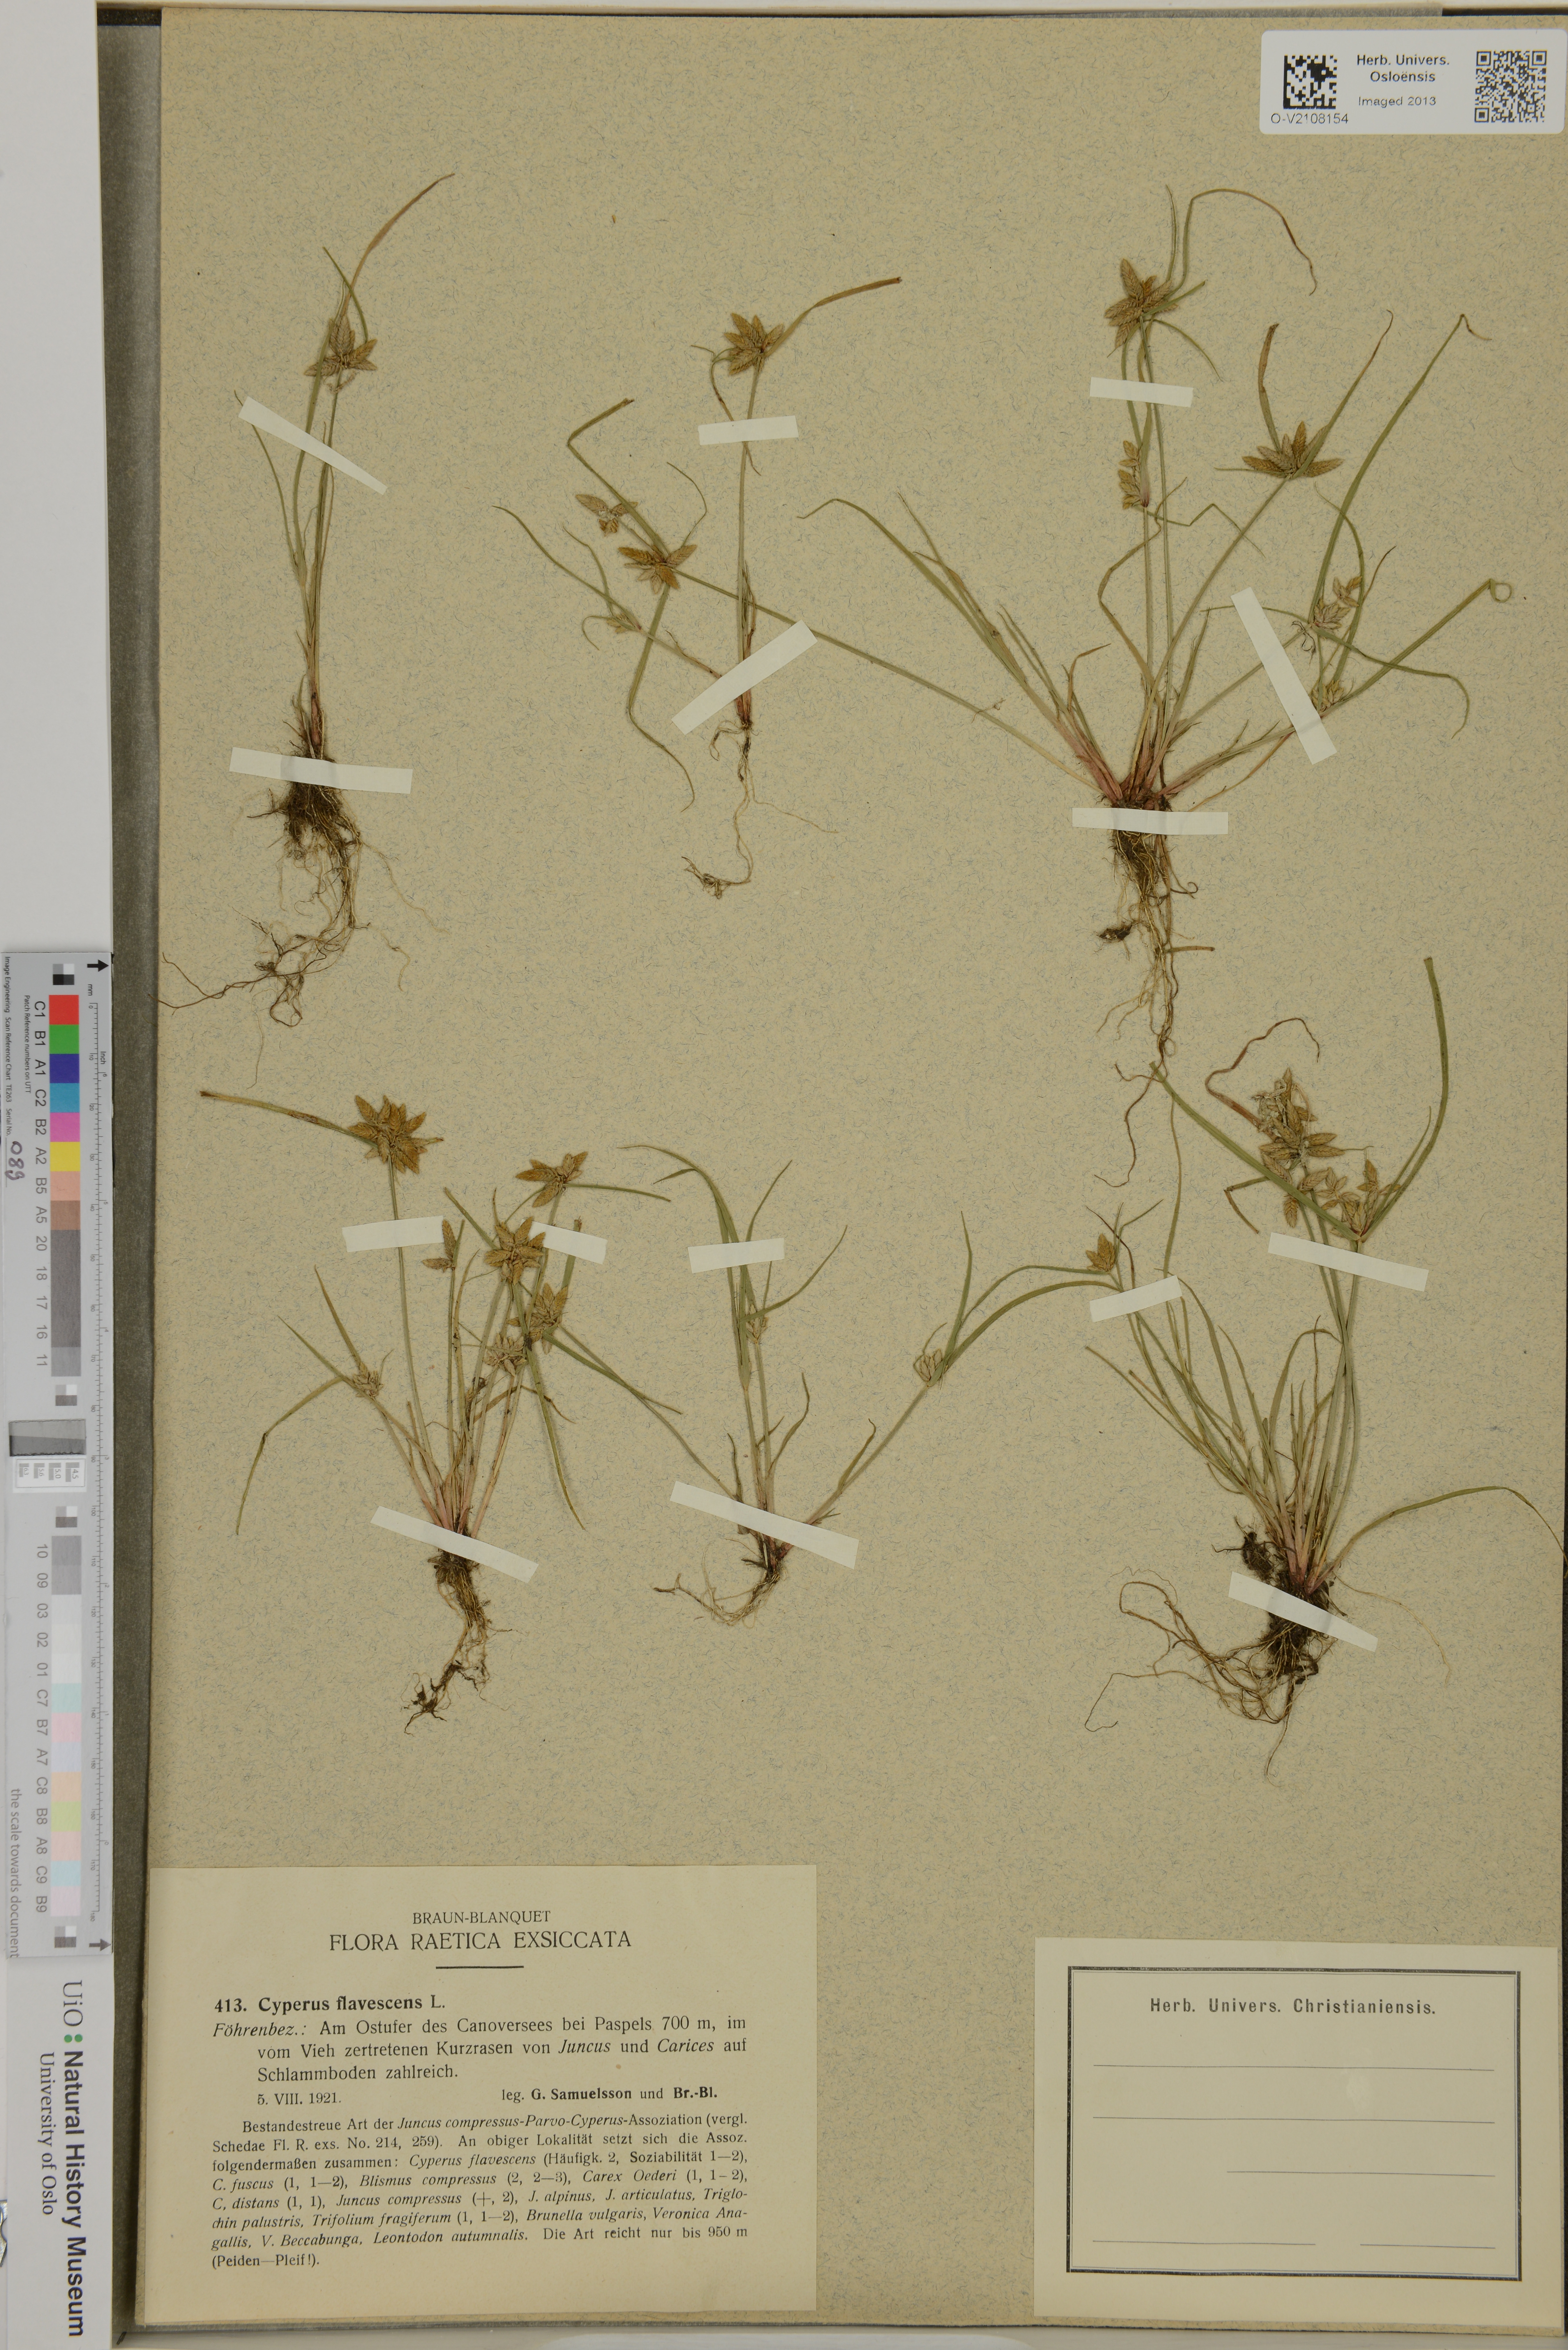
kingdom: Plantae
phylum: Tracheophyta
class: Liliopsida
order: Poales
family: Cyperaceae
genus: Cyperus
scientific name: Cyperus flavescens
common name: Yellow galingale
